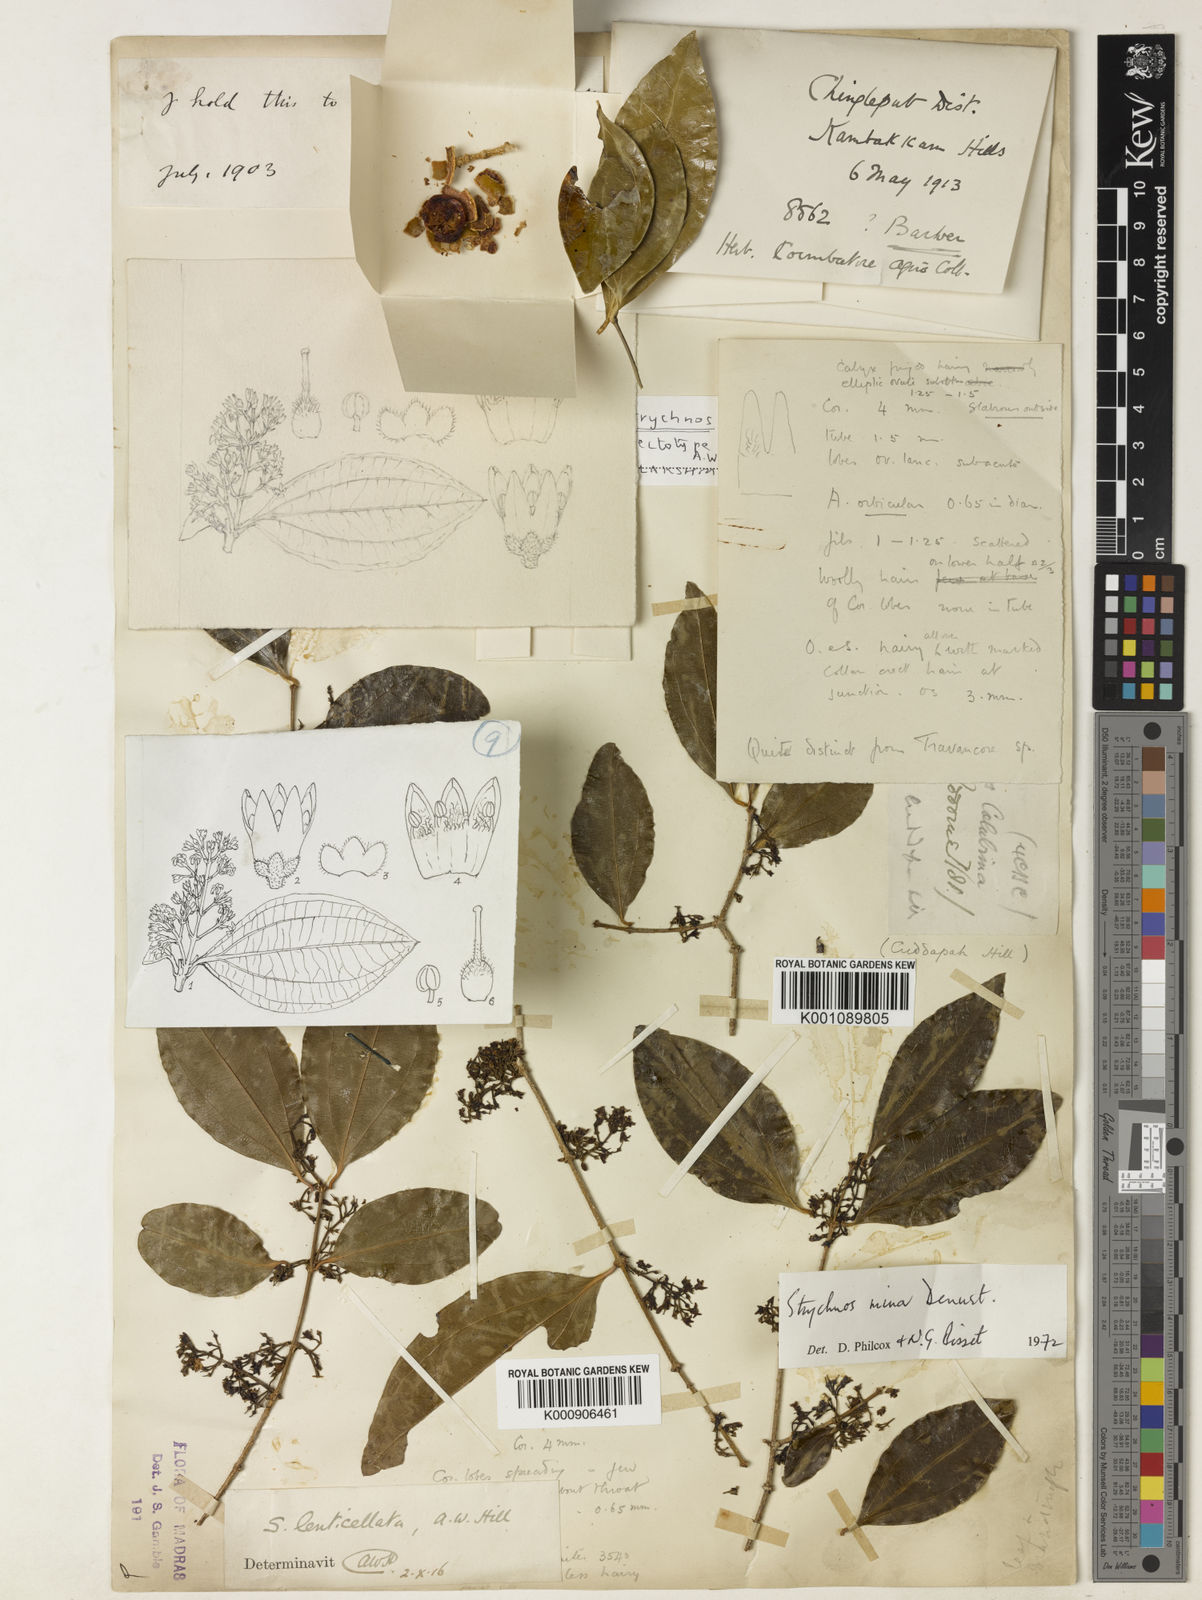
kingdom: Plantae
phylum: Tracheophyta
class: Magnoliopsida
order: Gentianales
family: Loganiaceae
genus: Strychnos
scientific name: Strychnos minor
